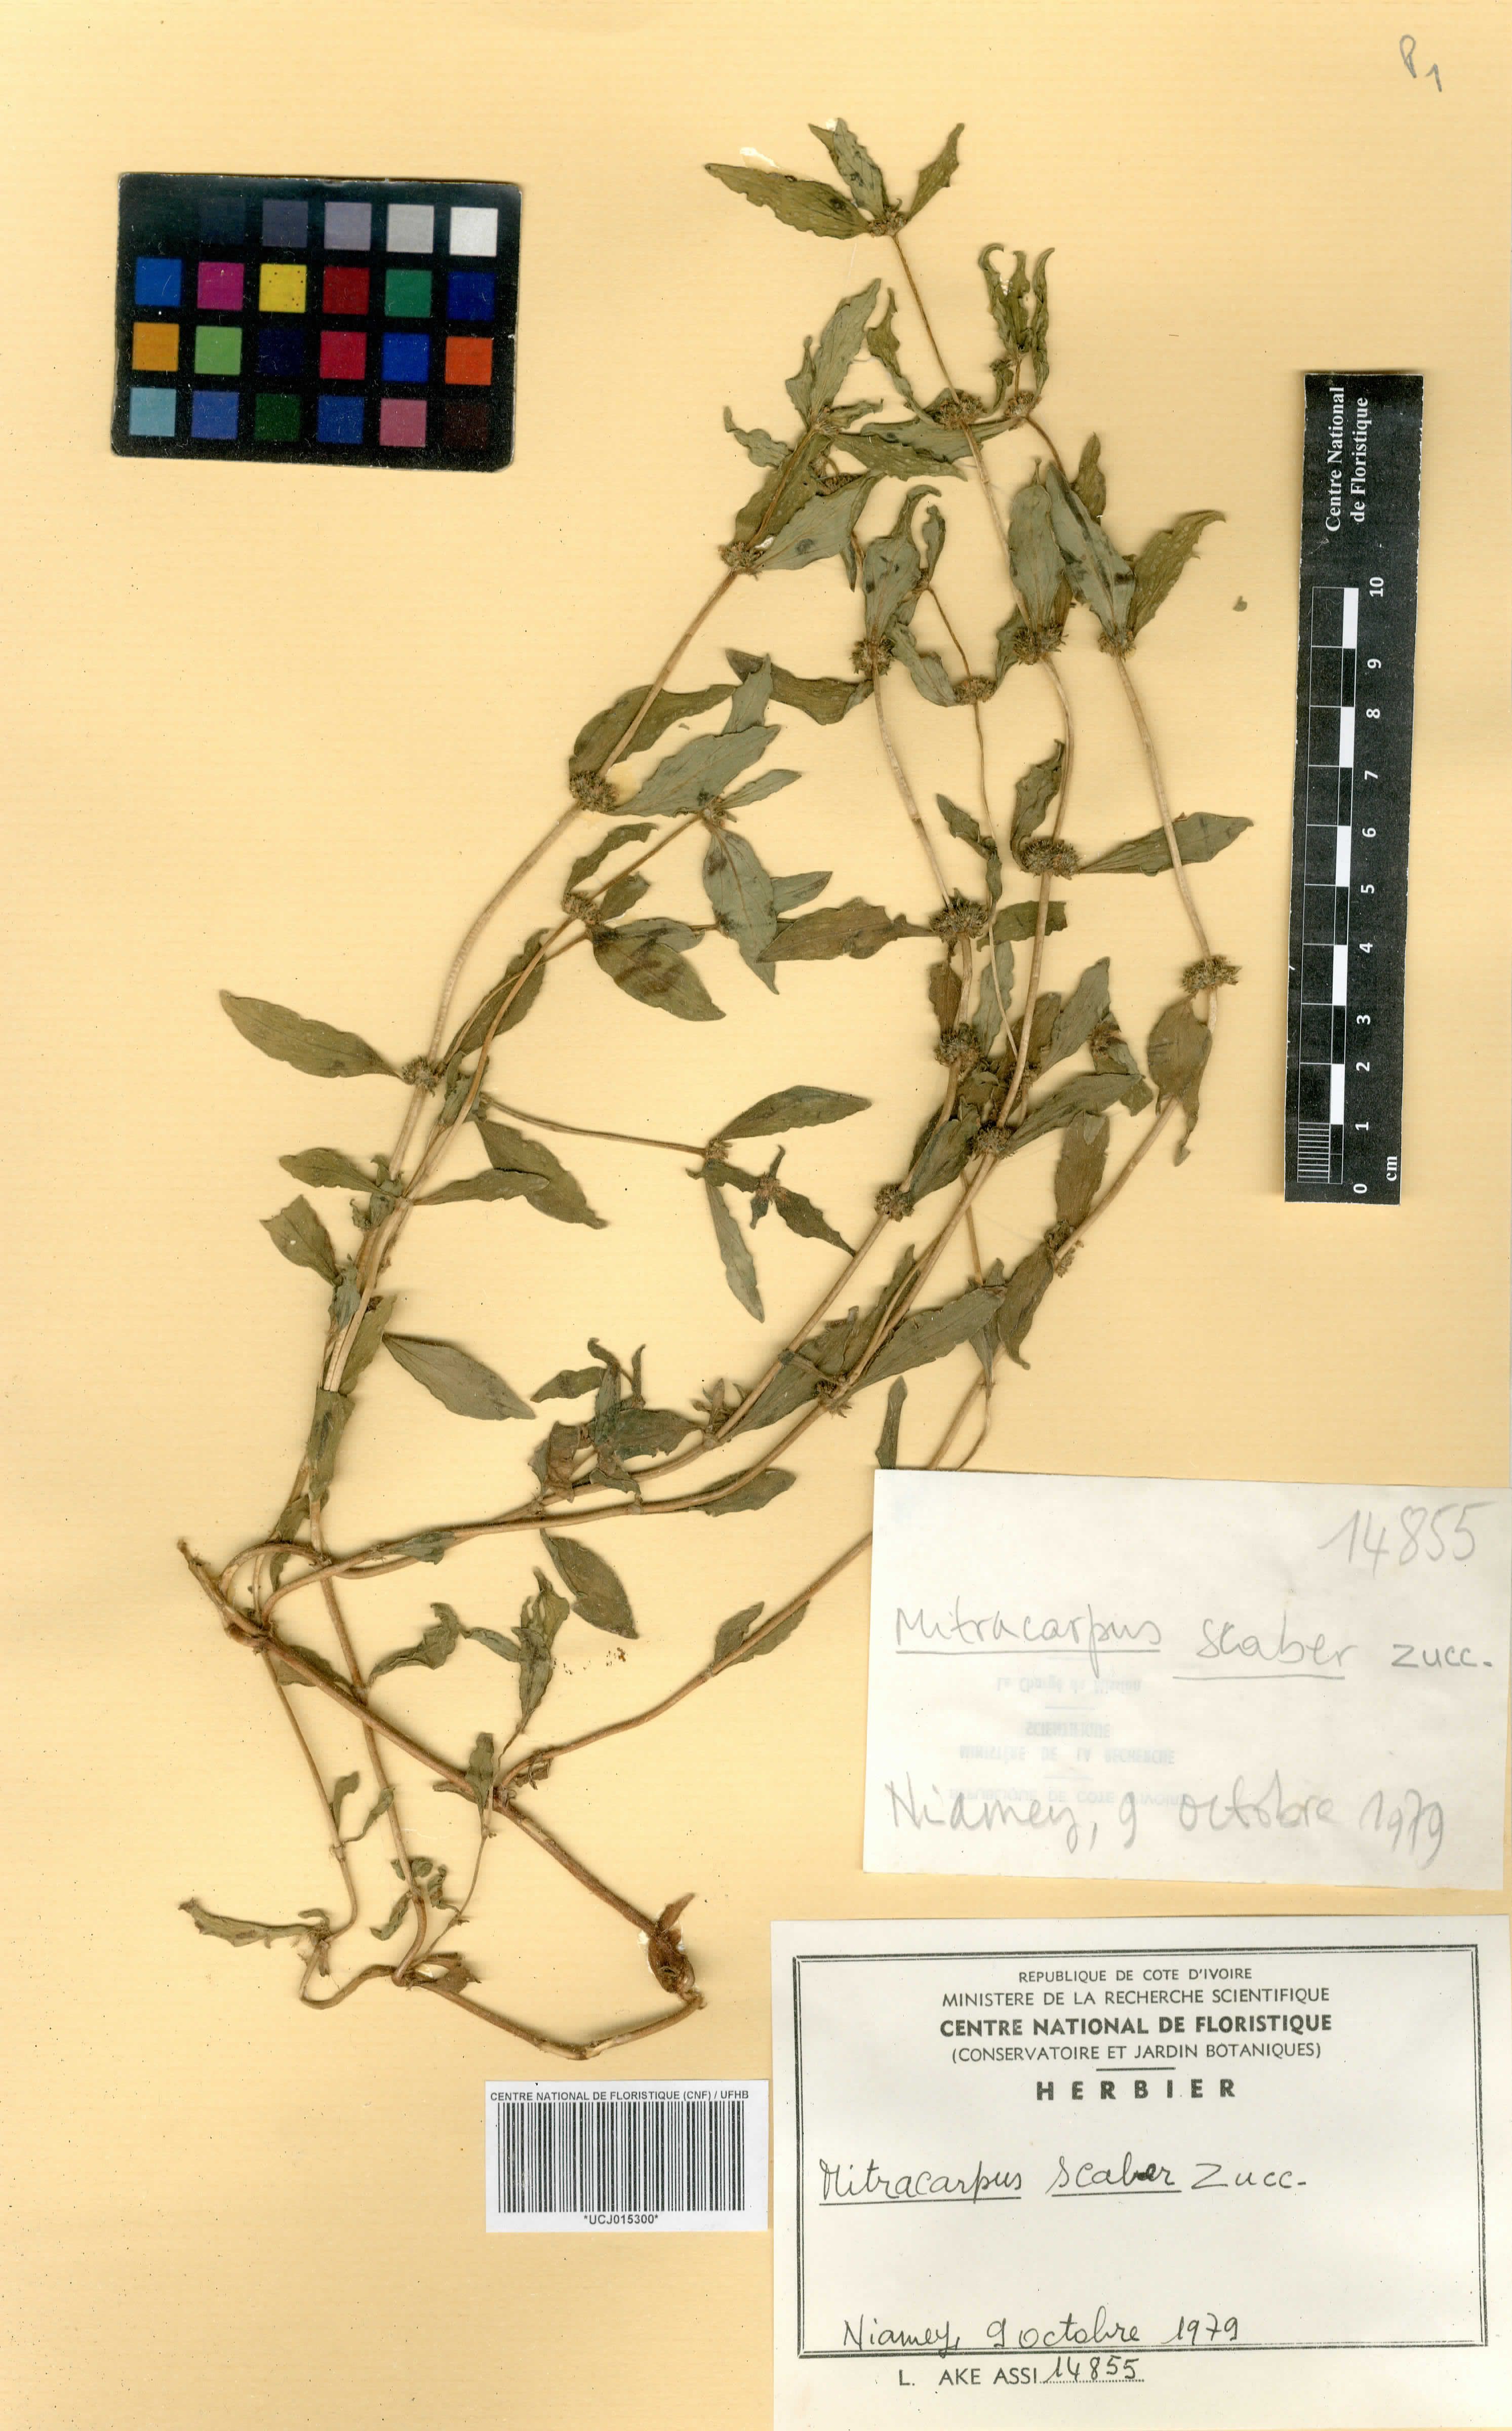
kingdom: Plantae
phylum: Tracheophyta
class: Magnoliopsida
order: Gentianales
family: Rubiaceae
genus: Mitracarpus
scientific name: Mitracarpus hirtus
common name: Tropical girdlepod
